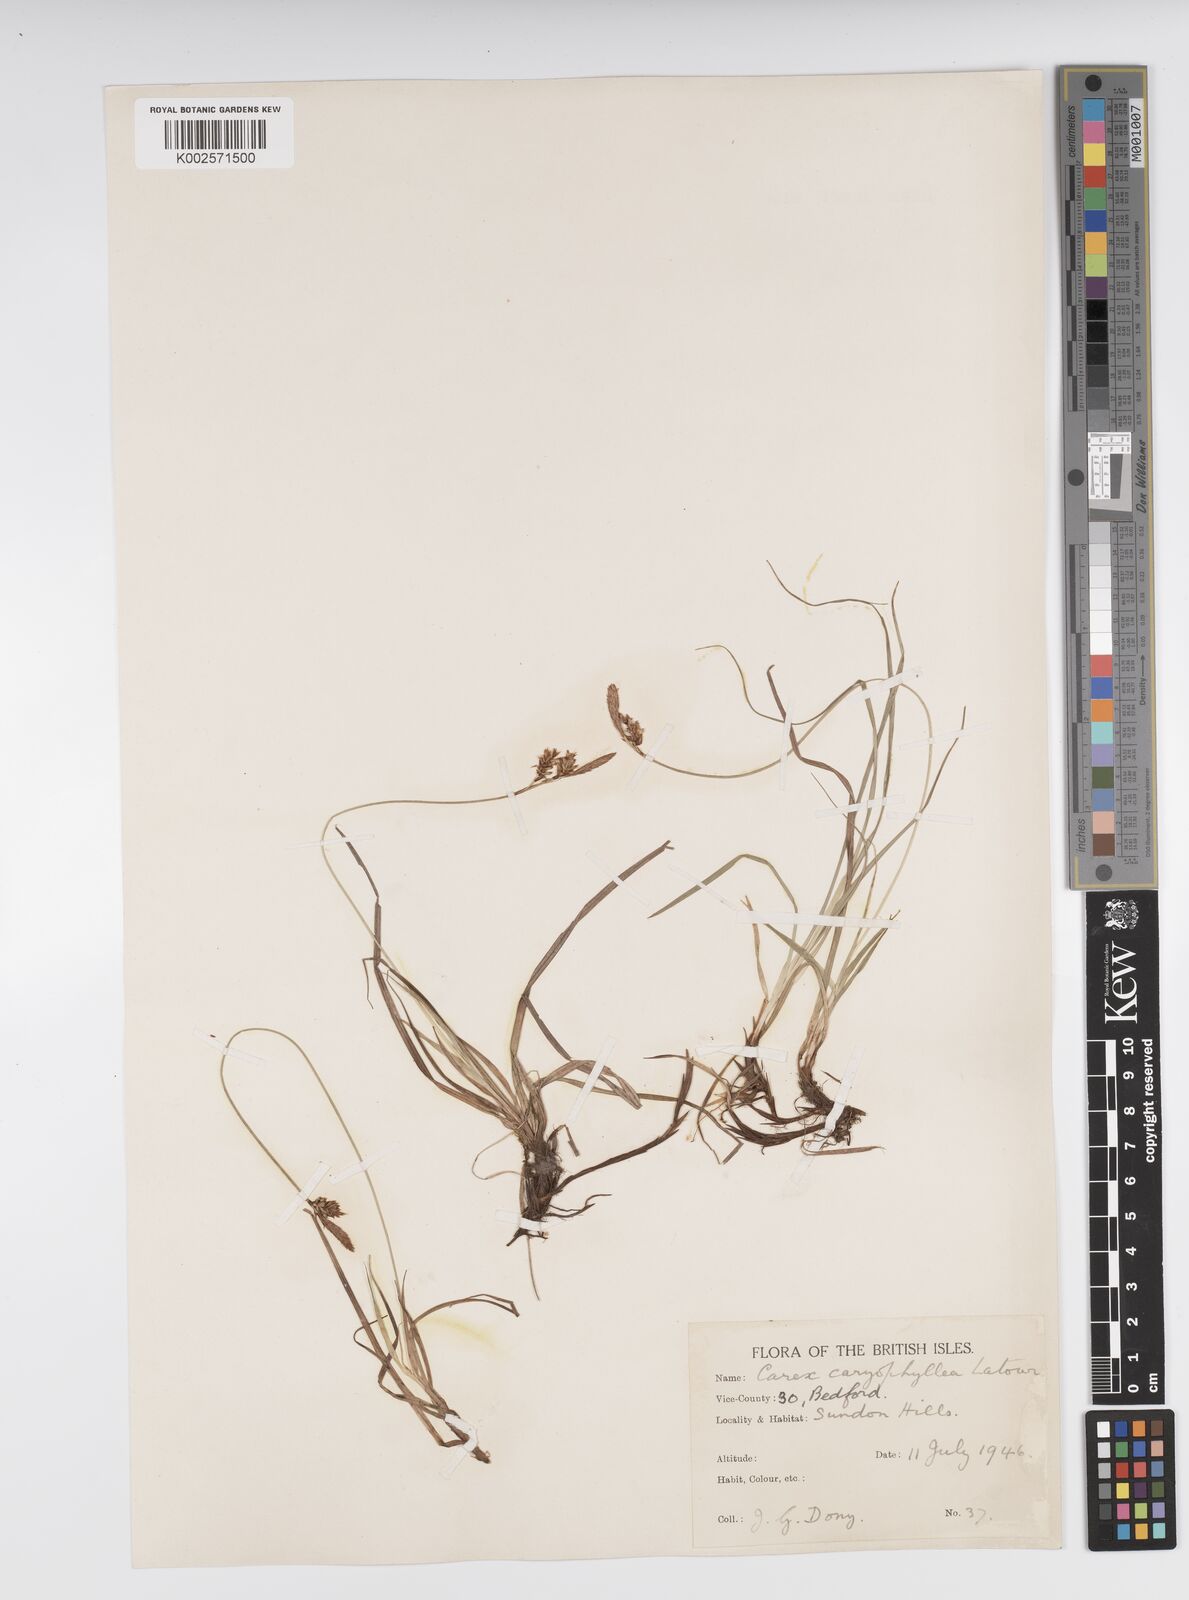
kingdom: Plantae
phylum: Tracheophyta
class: Liliopsida
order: Poales
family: Cyperaceae
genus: Carex
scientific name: Carex caryophyllea
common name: Spring sedge
